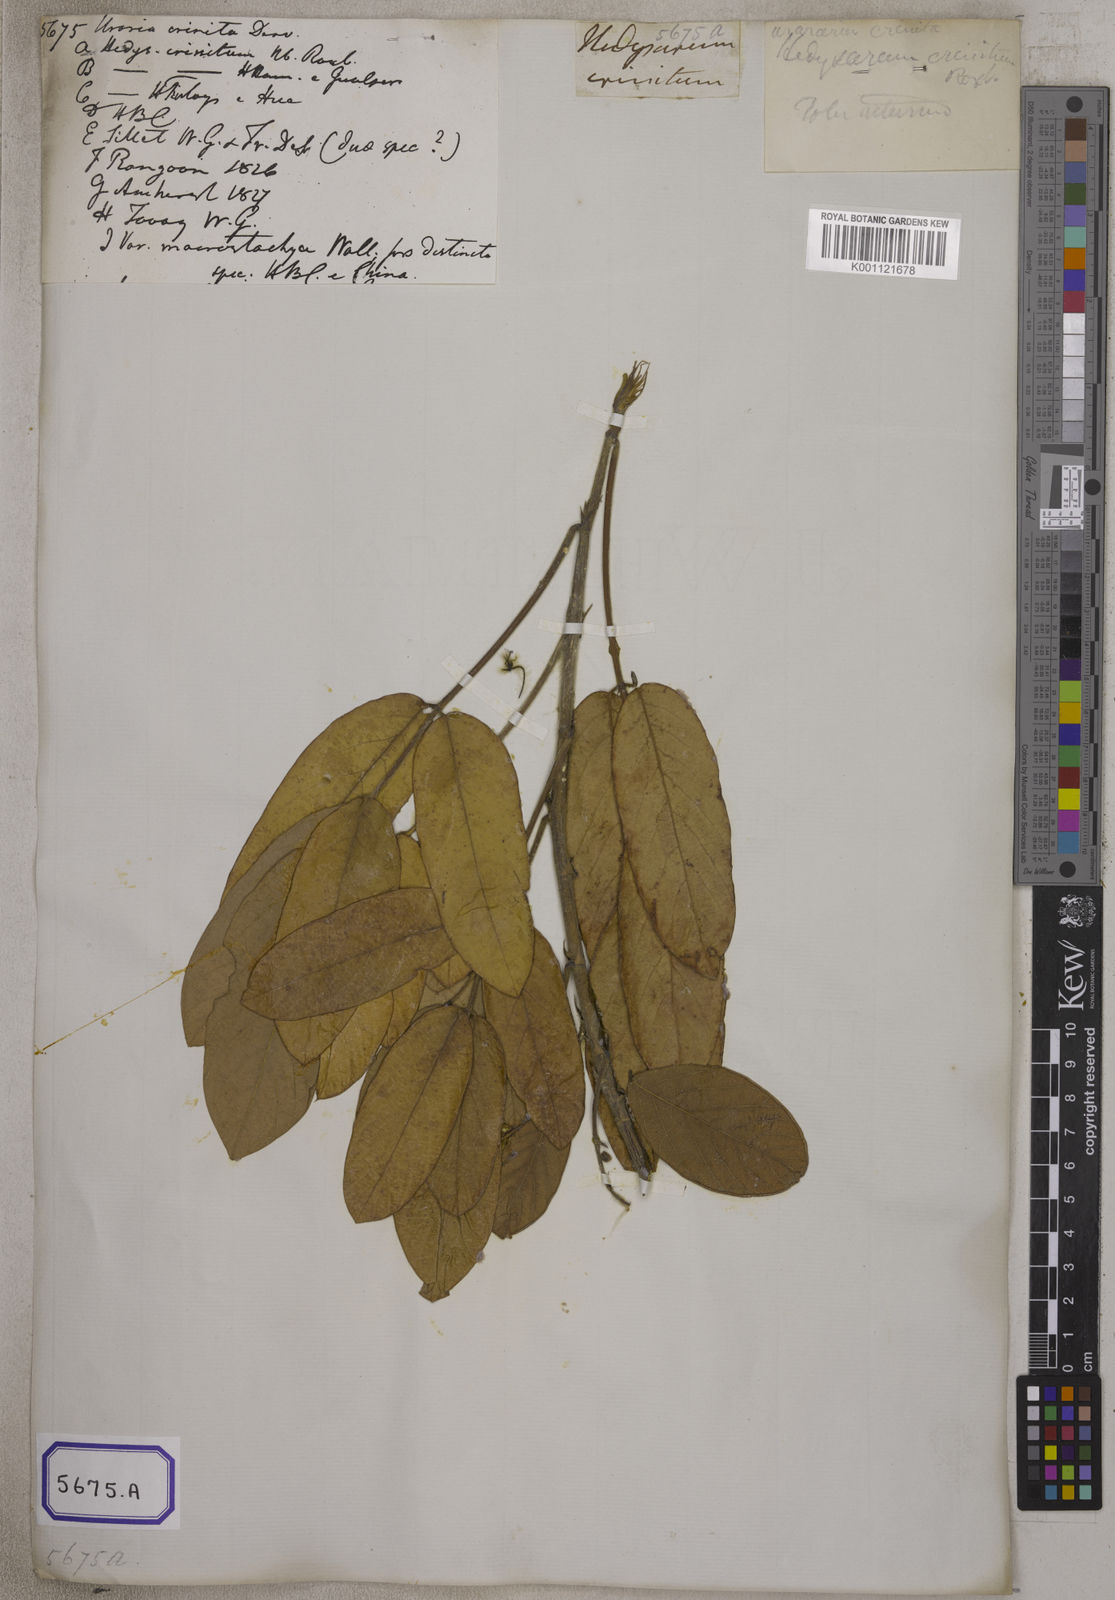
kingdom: Plantae
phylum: Tracheophyta
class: Magnoliopsida
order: Fabales
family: Fabaceae
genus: Uraria
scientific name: Uraria
